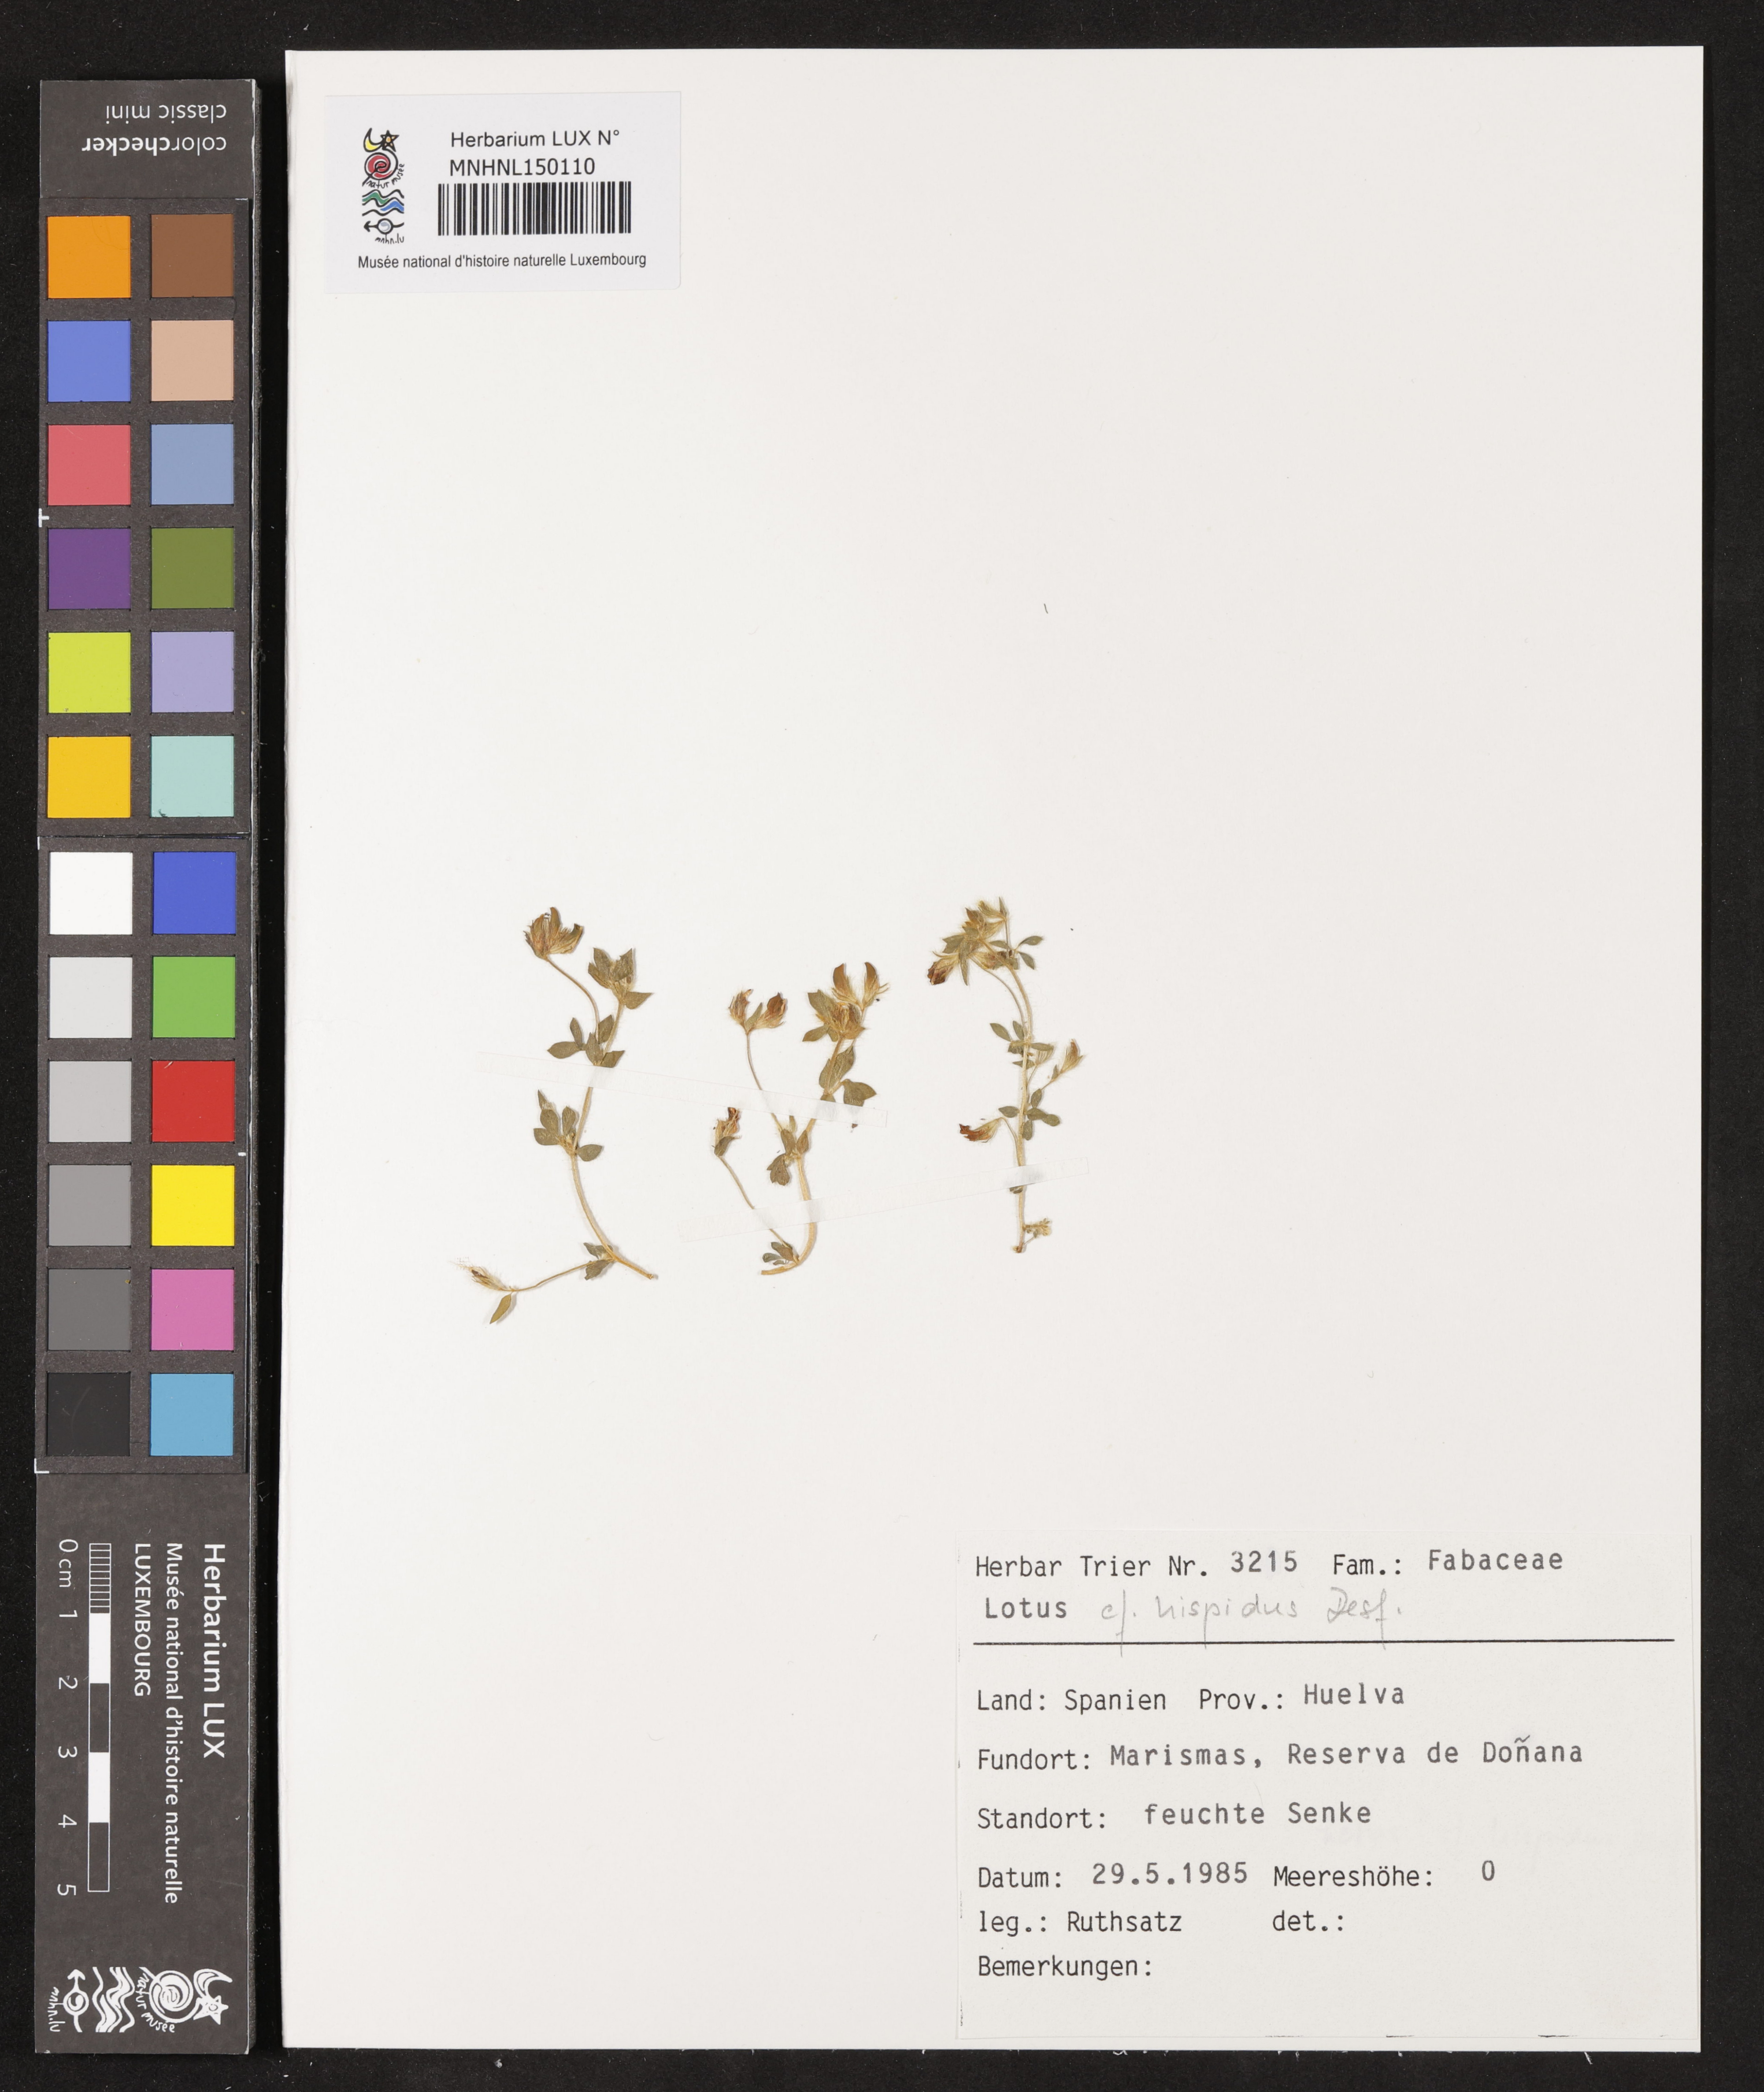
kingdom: Plantae
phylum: Tracheophyta
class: Magnoliopsida
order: Fabales
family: Fabaceae
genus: Lotus
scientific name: Lotus hispidus
